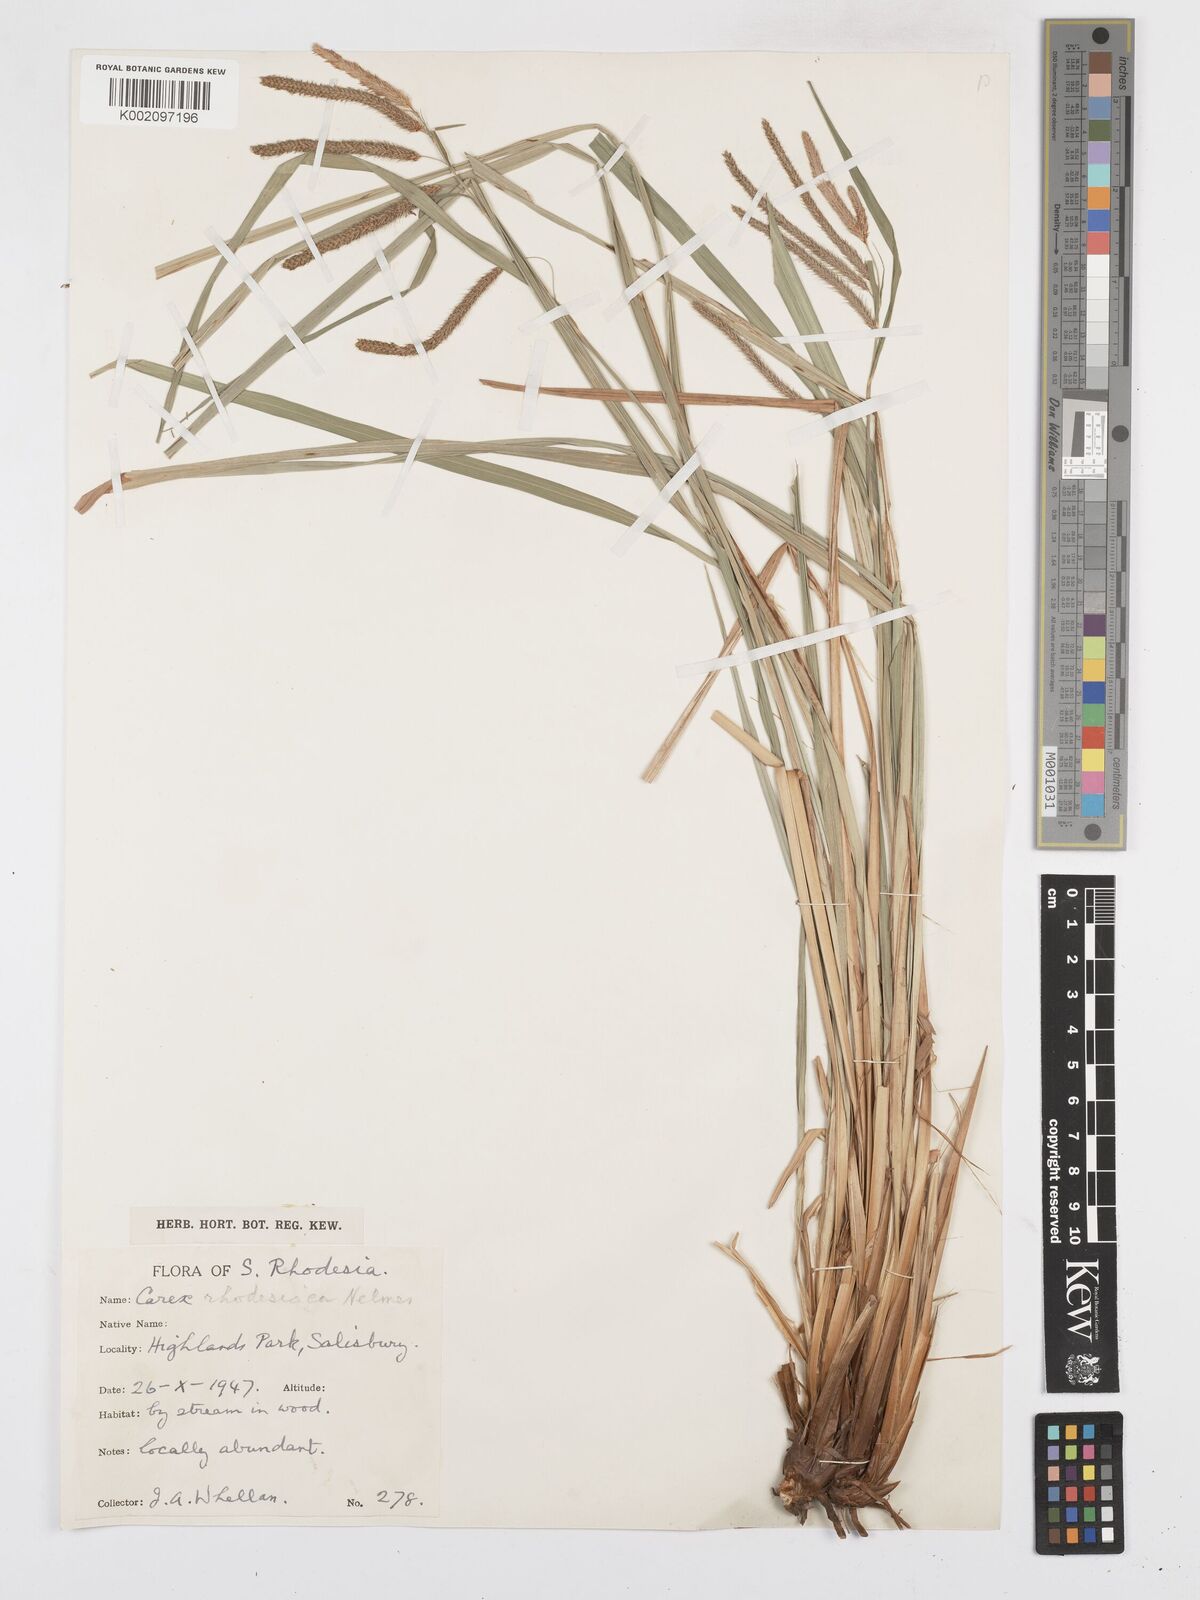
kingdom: Plantae
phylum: Tracheophyta
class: Liliopsida
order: Poales
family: Cyperaceae
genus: Carex
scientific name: Carex rhodesiaca
